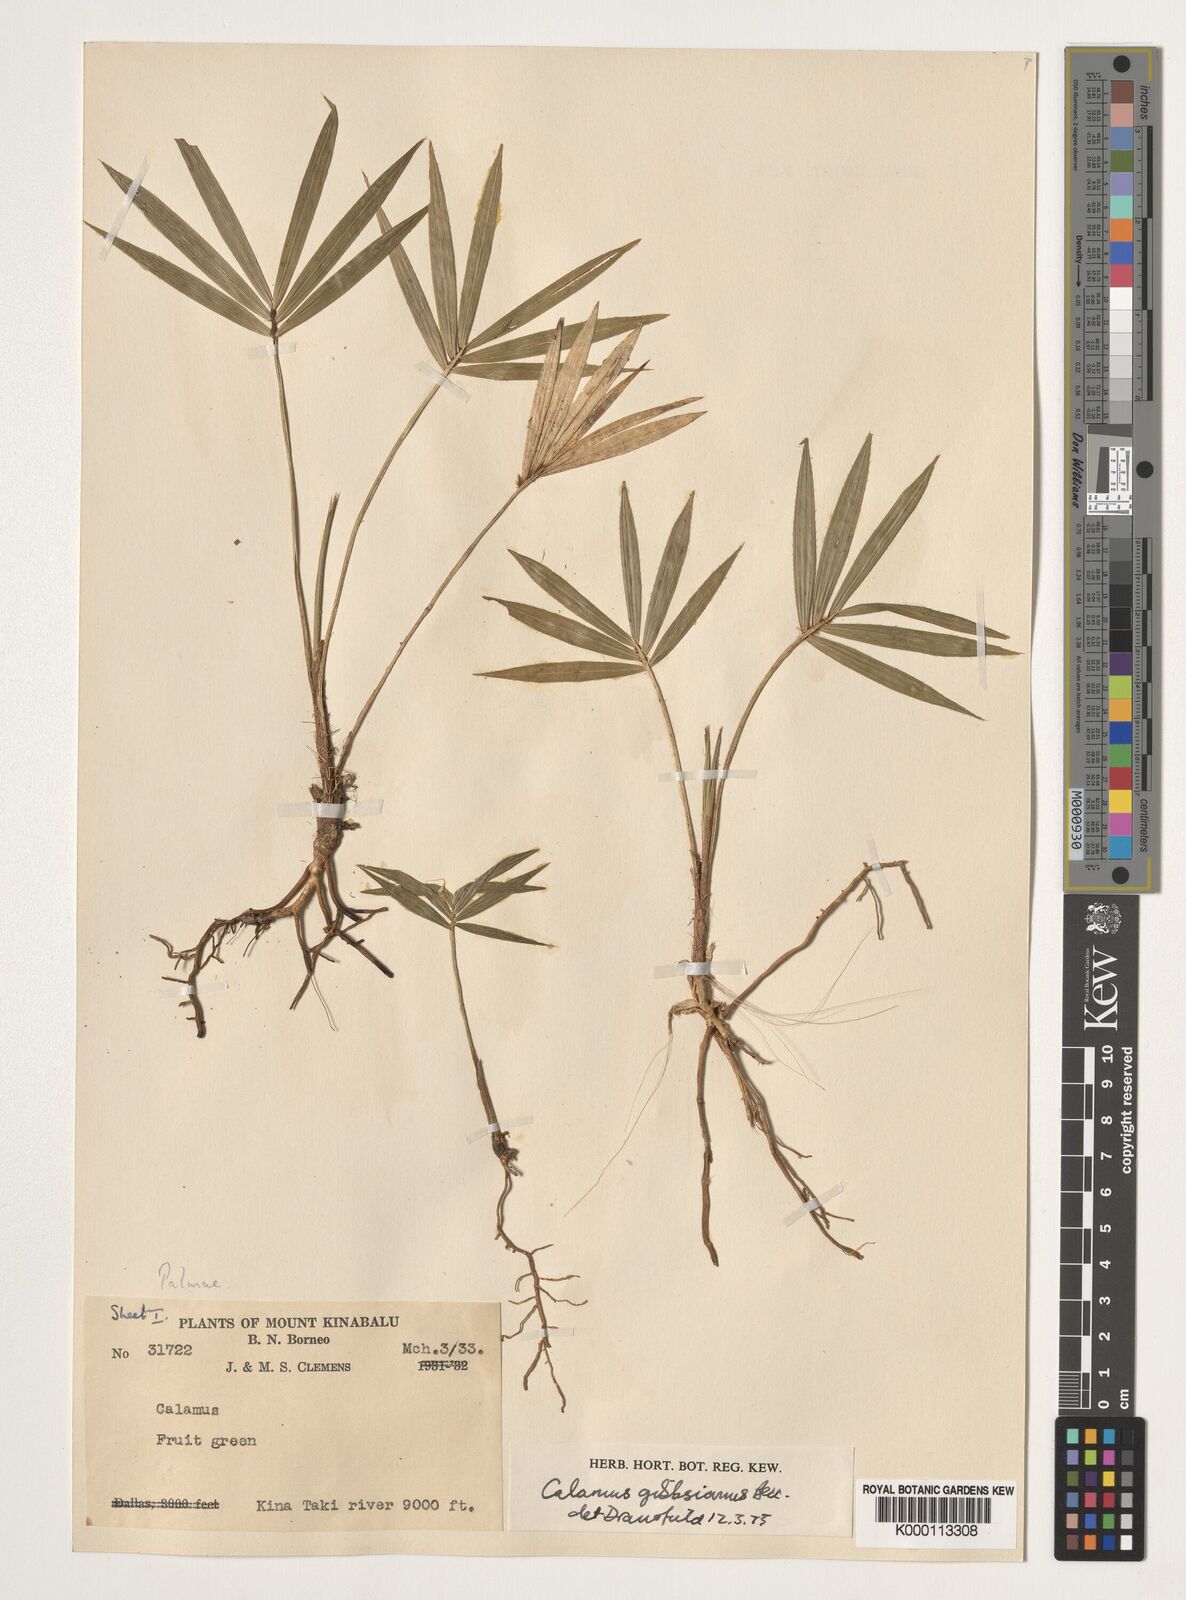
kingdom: Plantae
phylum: Tracheophyta
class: Liliopsida
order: Arecales
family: Arecaceae
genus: Calamus
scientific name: Calamus gibbsianus
